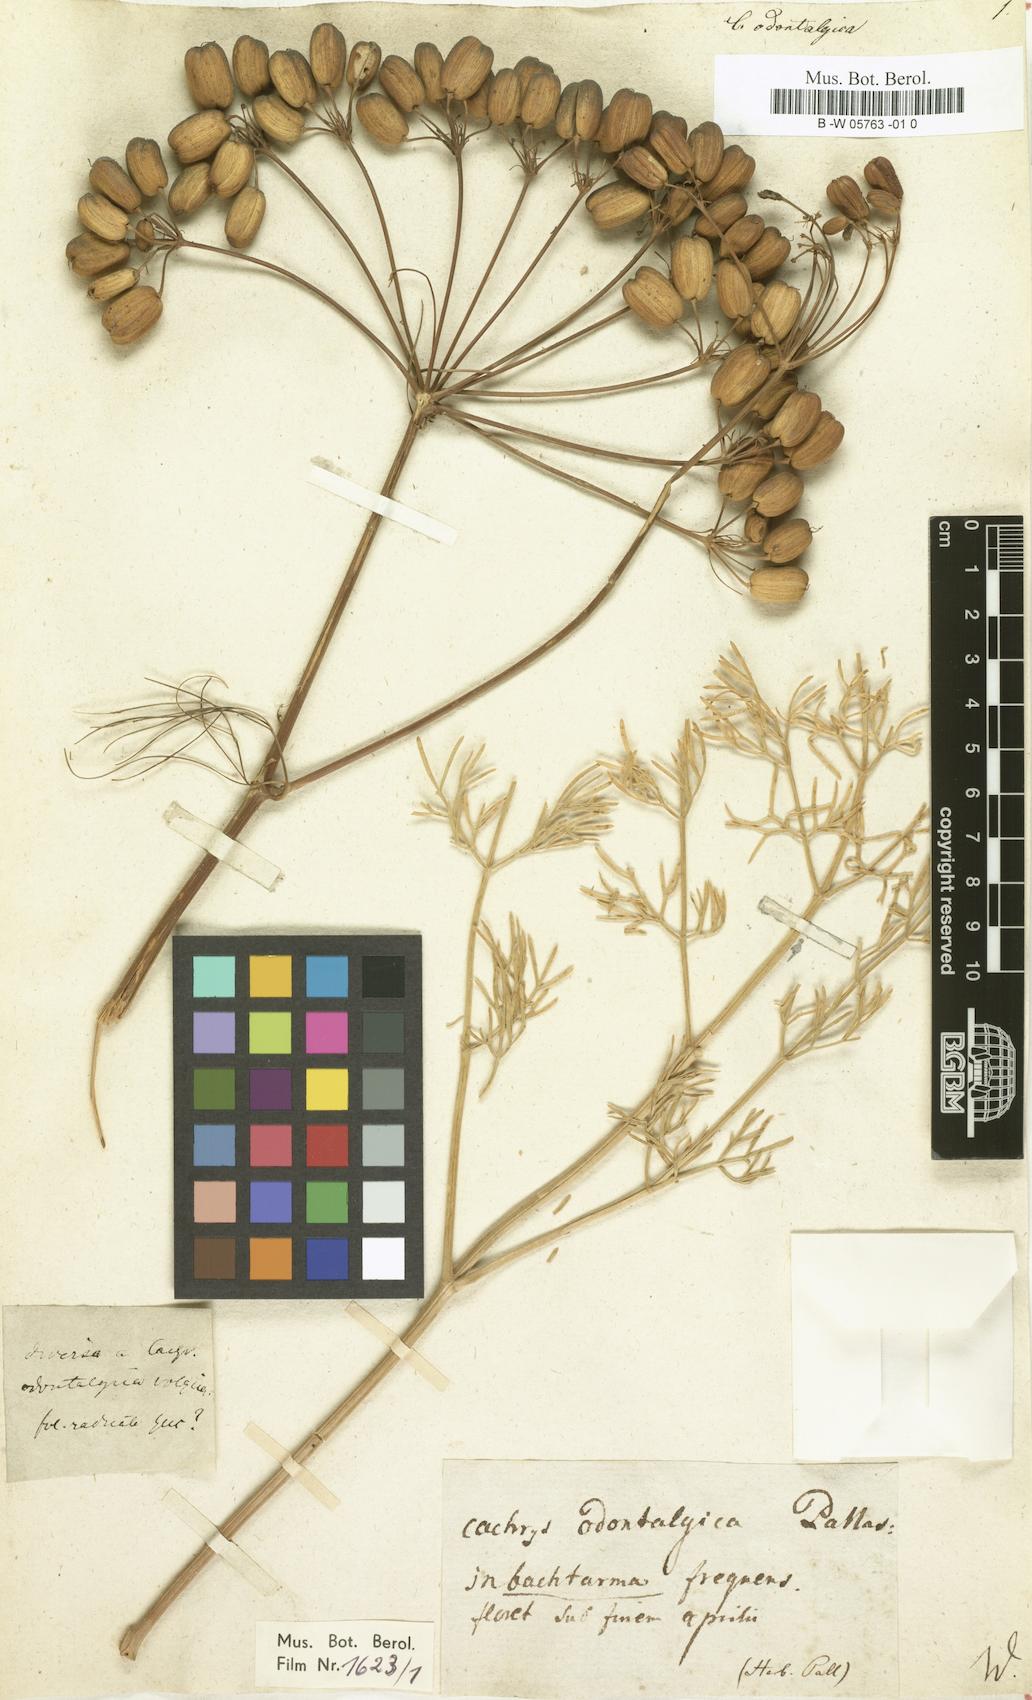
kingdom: Plantae
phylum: Tracheophyta
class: Magnoliopsida
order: Apiales
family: Apiaceae
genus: Prangos
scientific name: Prangos odontalgica
